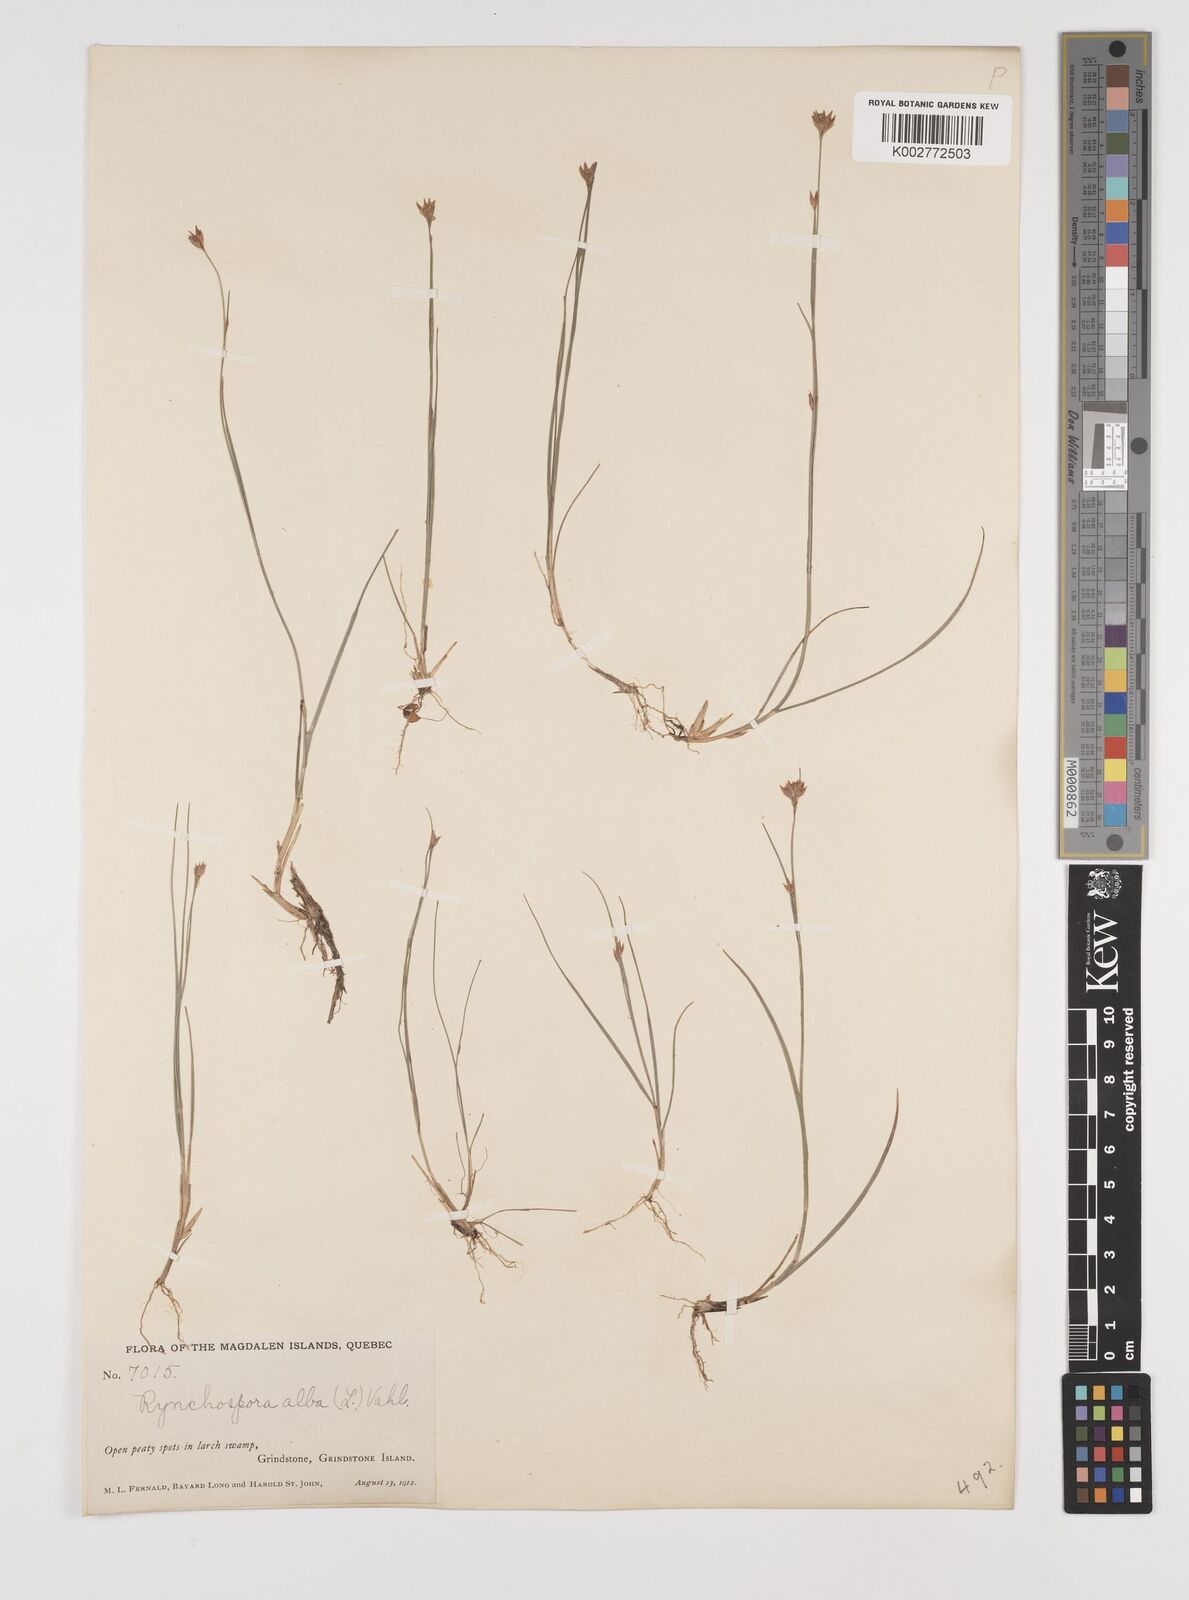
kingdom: Plantae
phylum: Tracheophyta
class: Liliopsida
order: Poales
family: Cyperaceae
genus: Rhynchospora
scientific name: Rhynchospora alba
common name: White beak-sedge
